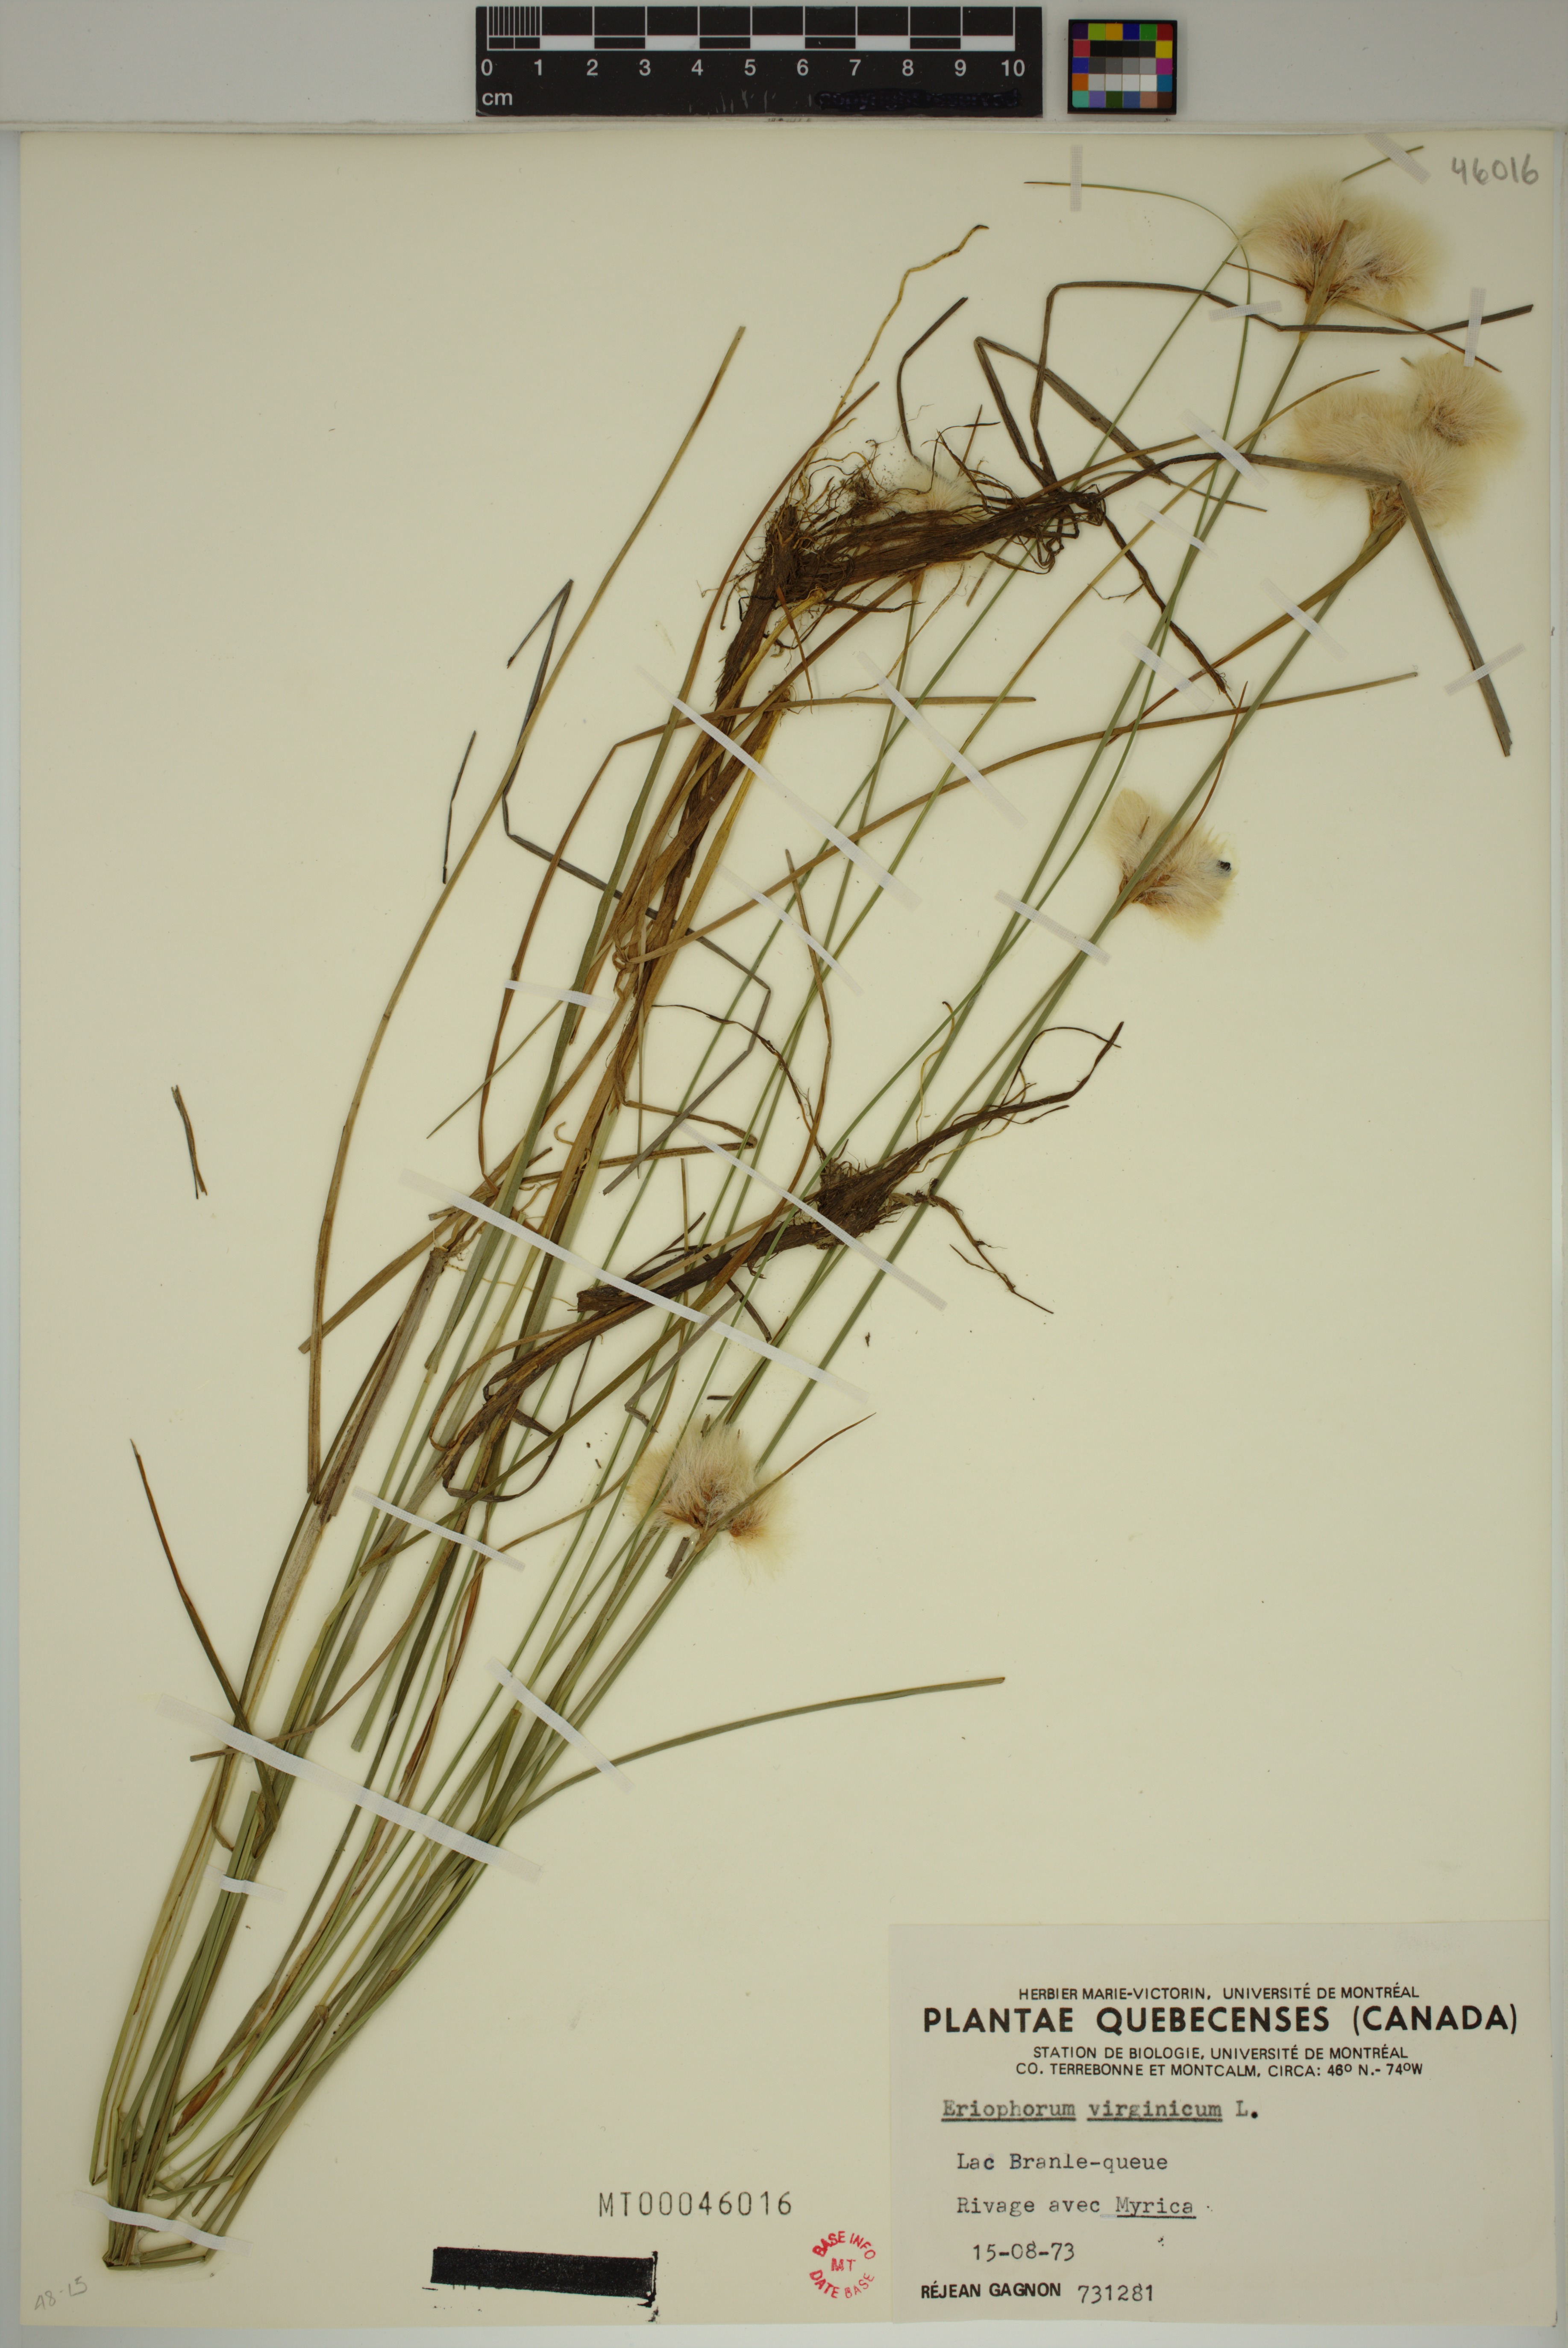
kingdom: Plantae
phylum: Tracheophyta
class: Liliopsida
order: Poales
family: Cyperaceae
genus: Eriophorum
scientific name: Eriophorum virginicum
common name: Tawny cottongrass
